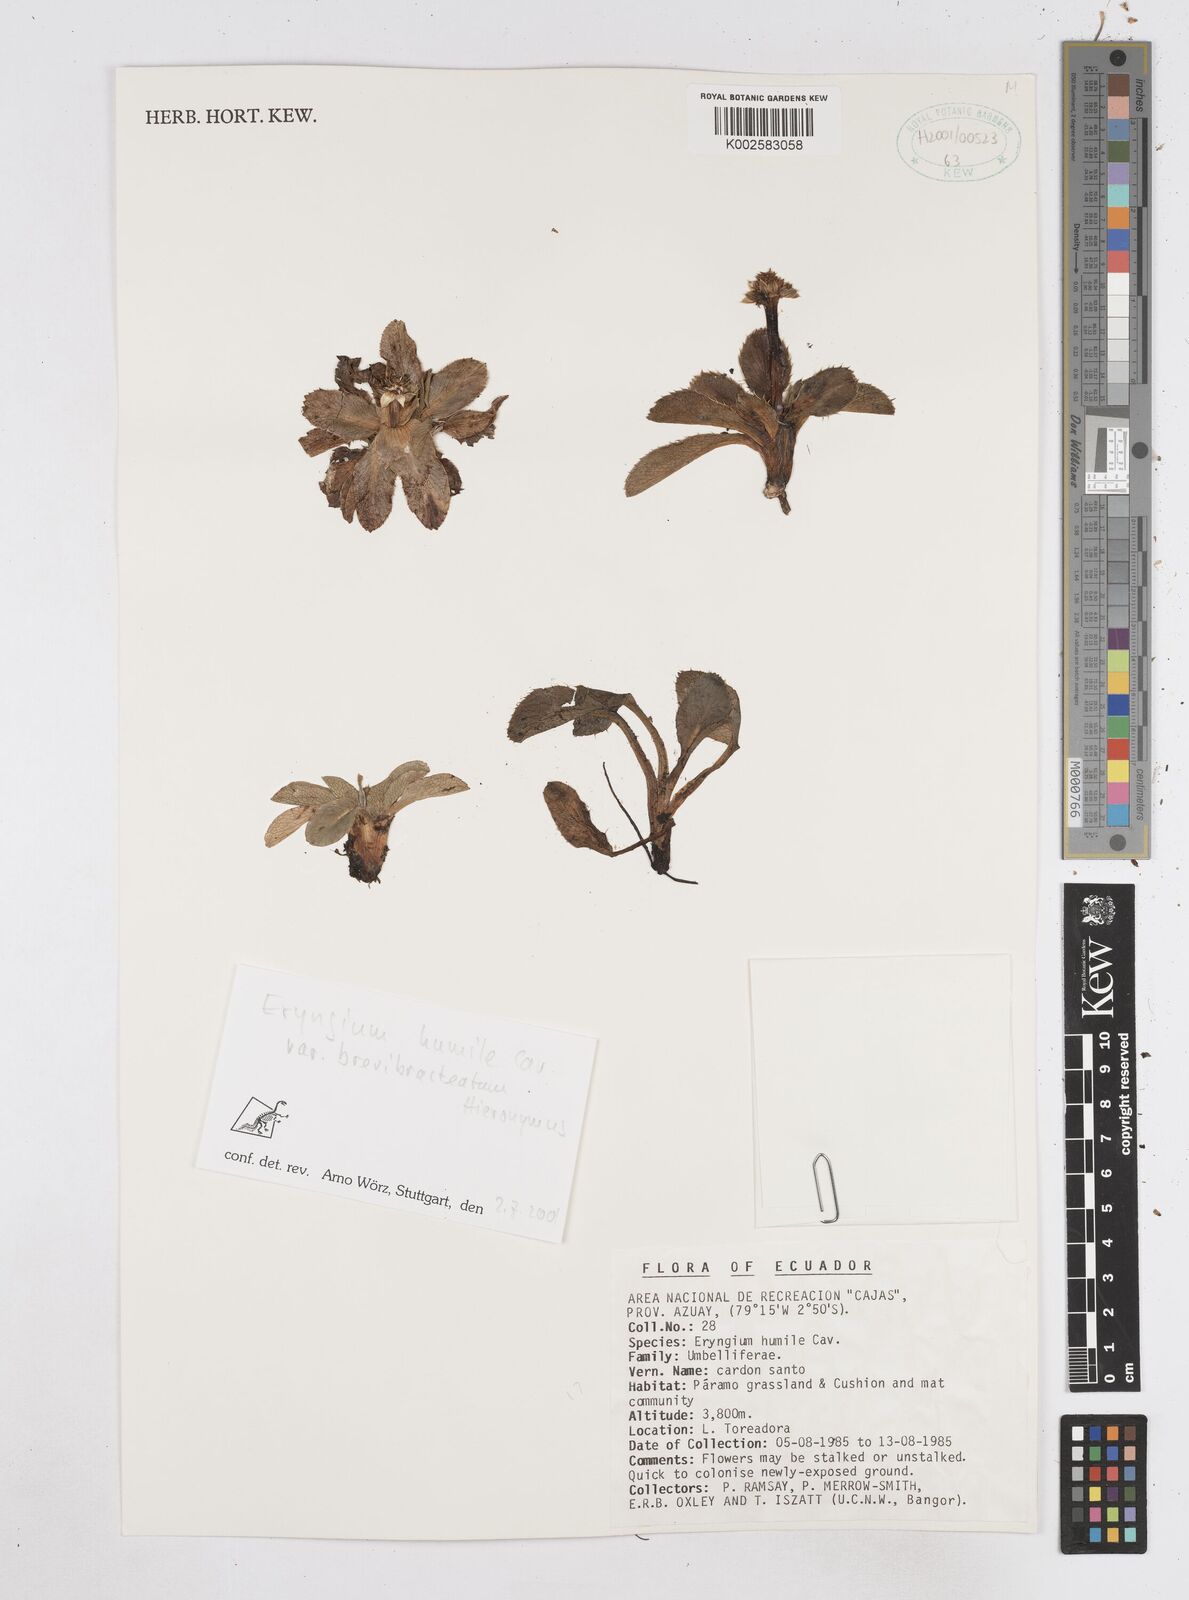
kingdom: Plantae
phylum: Tracheophyta
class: Magnoliopsida
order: Apiales
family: Apiaceae
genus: Eryngium
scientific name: Eryngium humile
